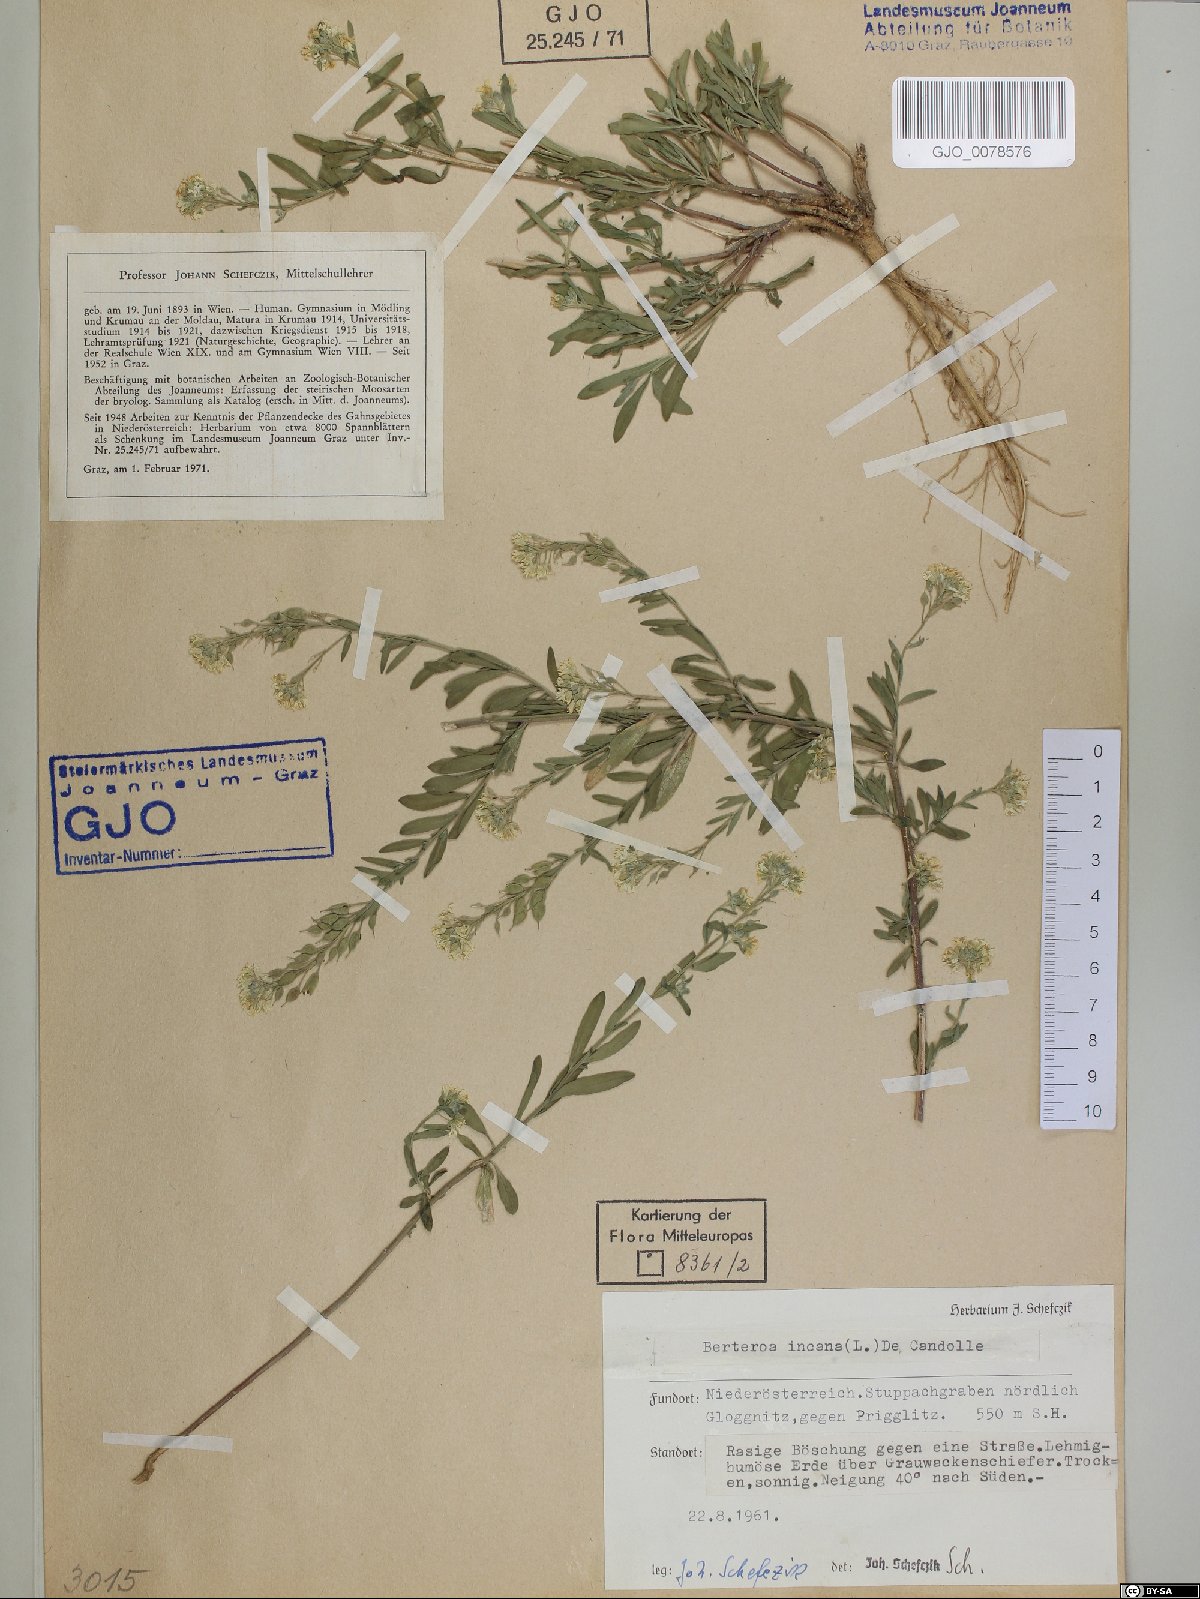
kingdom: Plantae
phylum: Tracheophyta
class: Magnoliopsida
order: Brassicales
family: Brassicaceae
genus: Berteroa
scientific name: Berteroa incana
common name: Hoary alison
